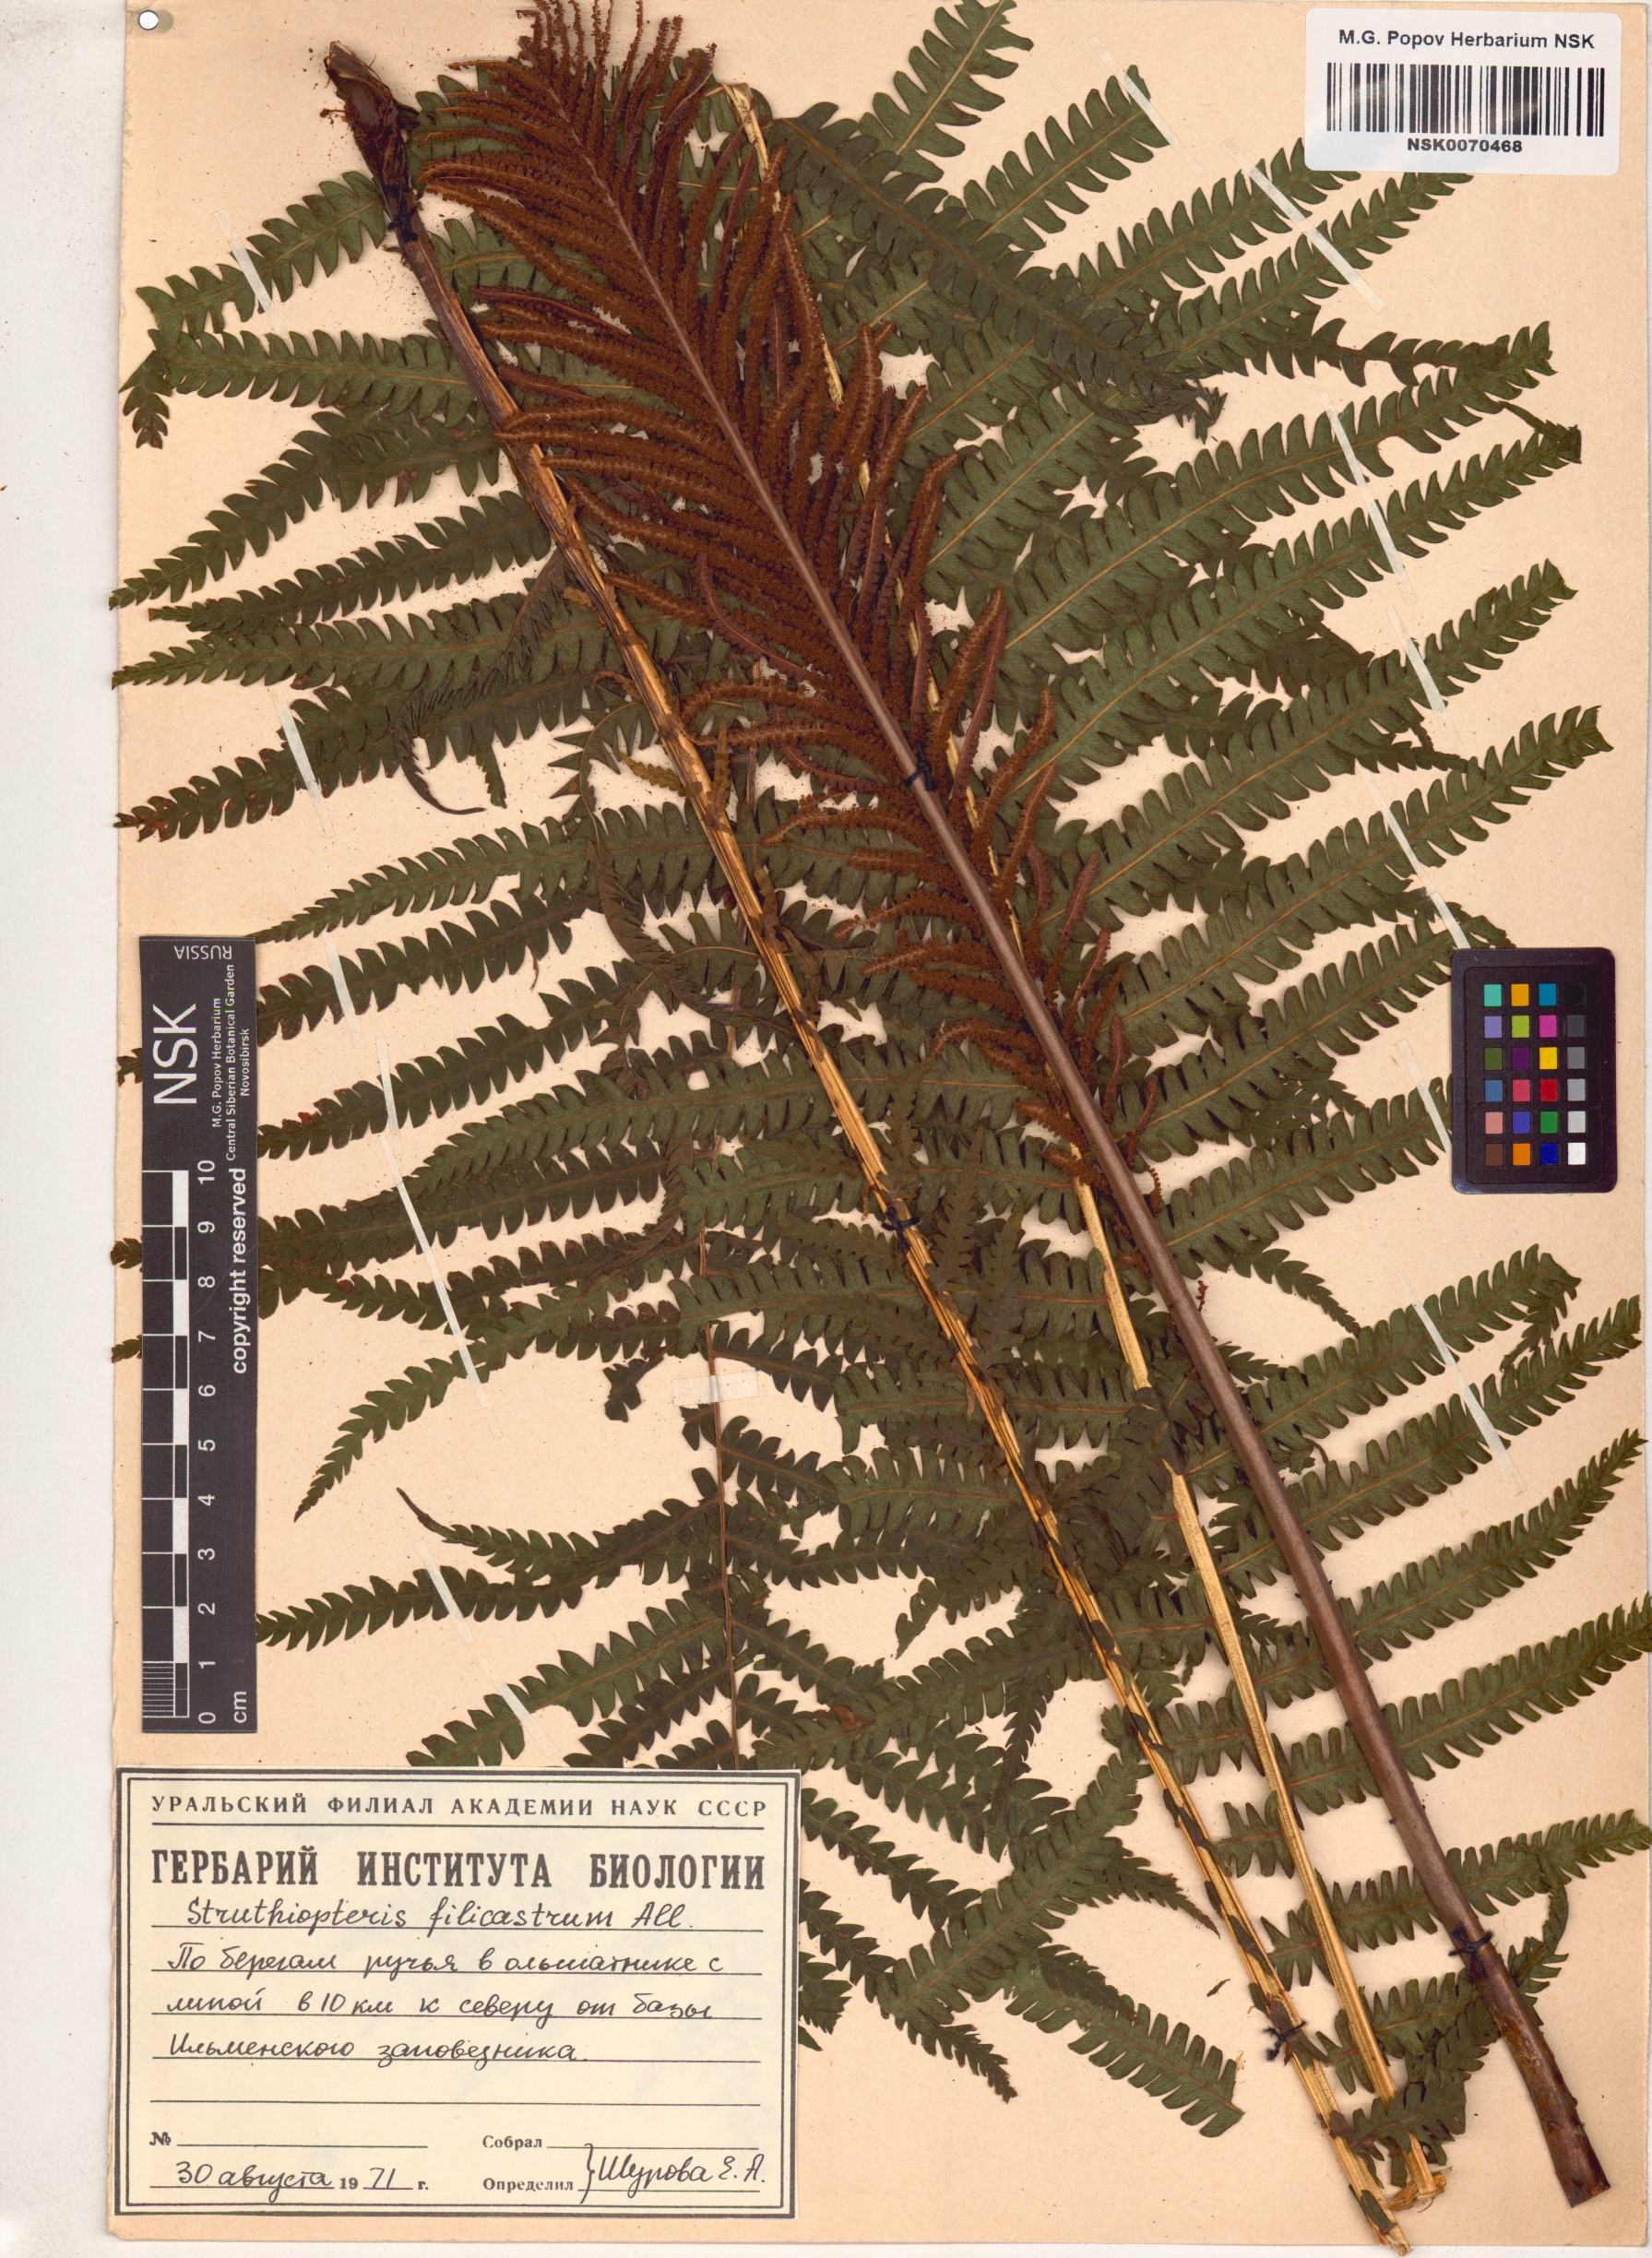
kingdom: Plantae
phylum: Tracheophyta
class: Polypodiopsida
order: Polypodiales
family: Onocleaceae
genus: Matteuccia
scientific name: Matteuccia struthiopteris
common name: Ostrich fern
